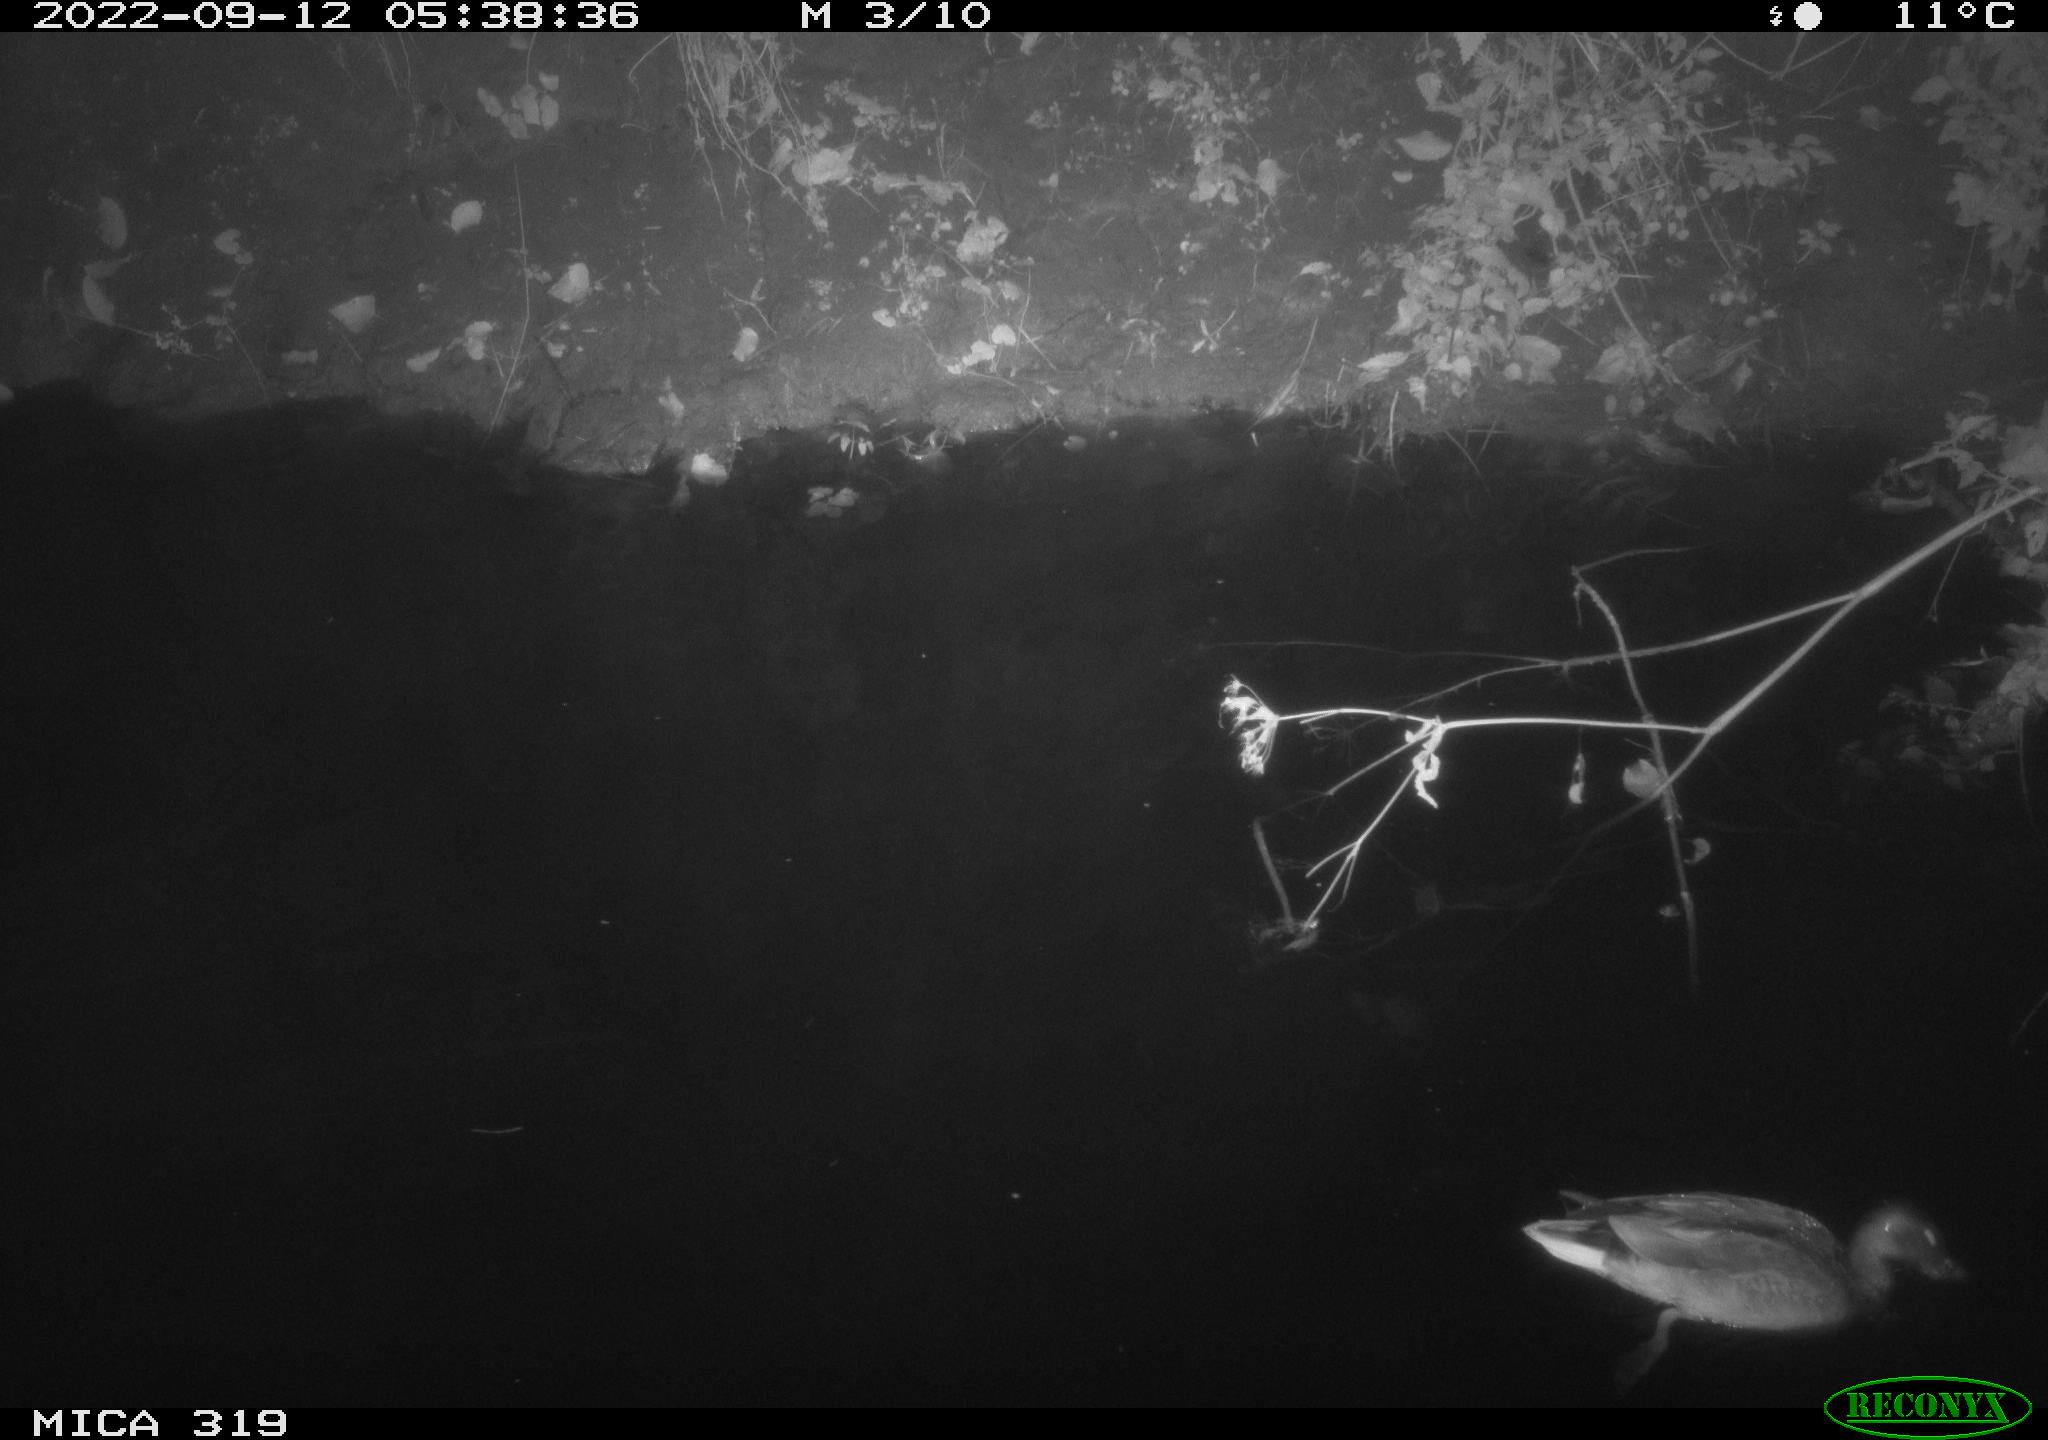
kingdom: Animalia
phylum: Chordata
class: Aves
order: Anseriformes
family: Anatidae
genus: Anas
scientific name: Anas
